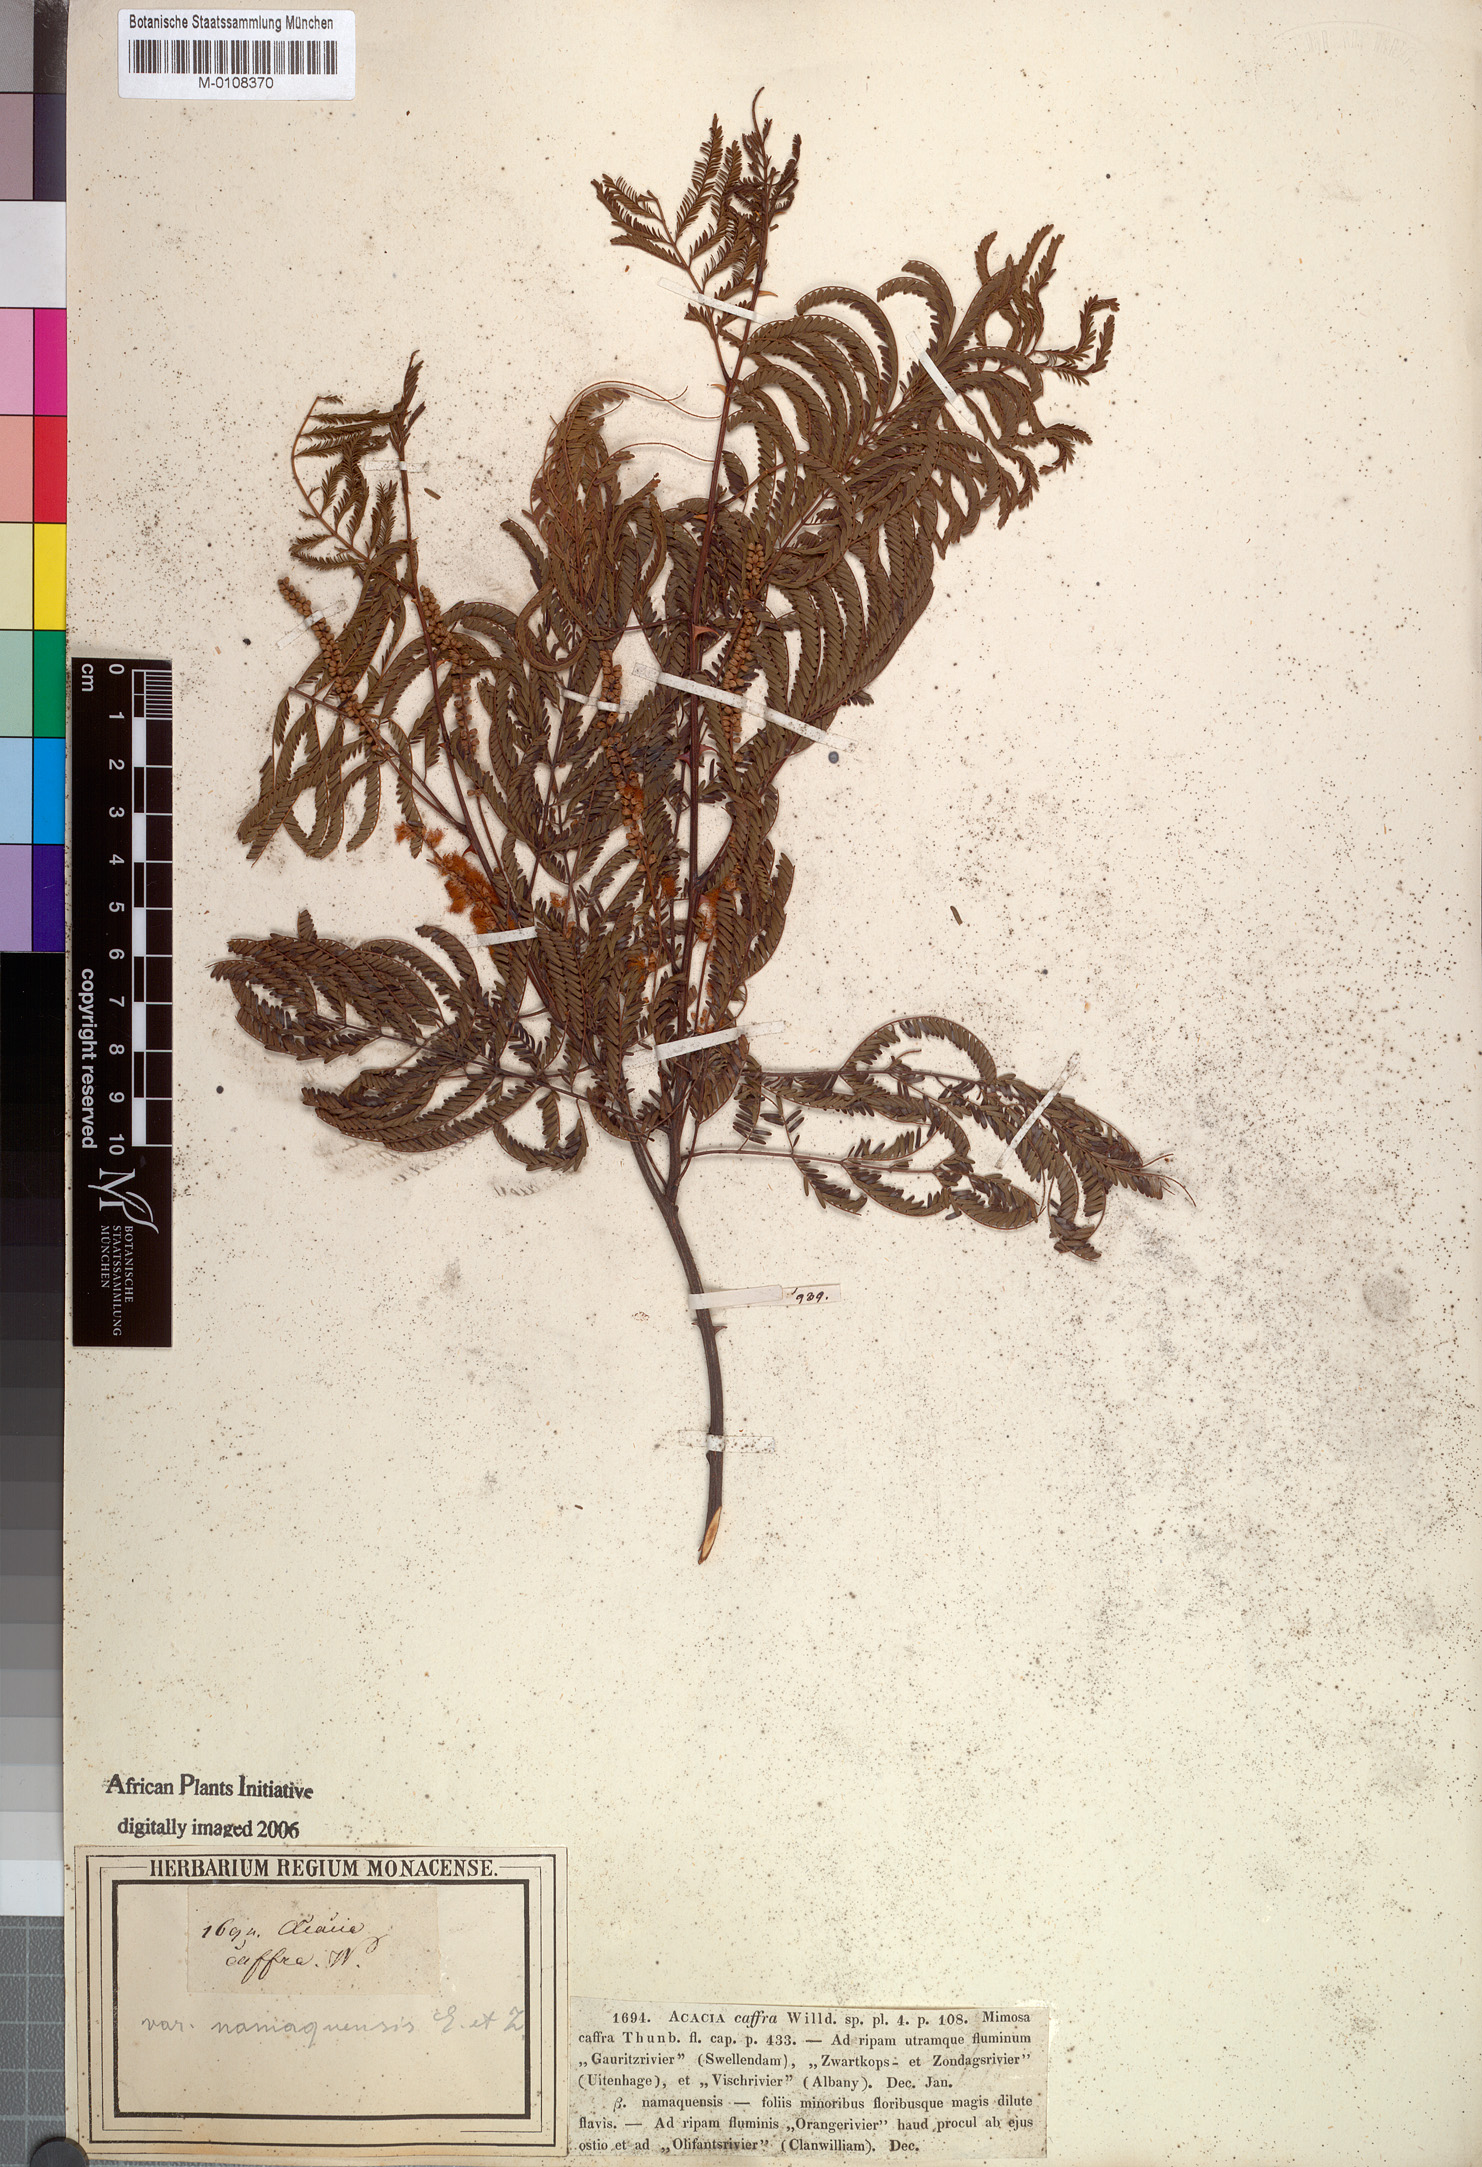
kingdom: Plantae
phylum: Tracheophyta
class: Magnoliopsida
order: Fabales
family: Fabaceae
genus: Senegalia
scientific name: Senegalia caffra
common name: Cat thorn
